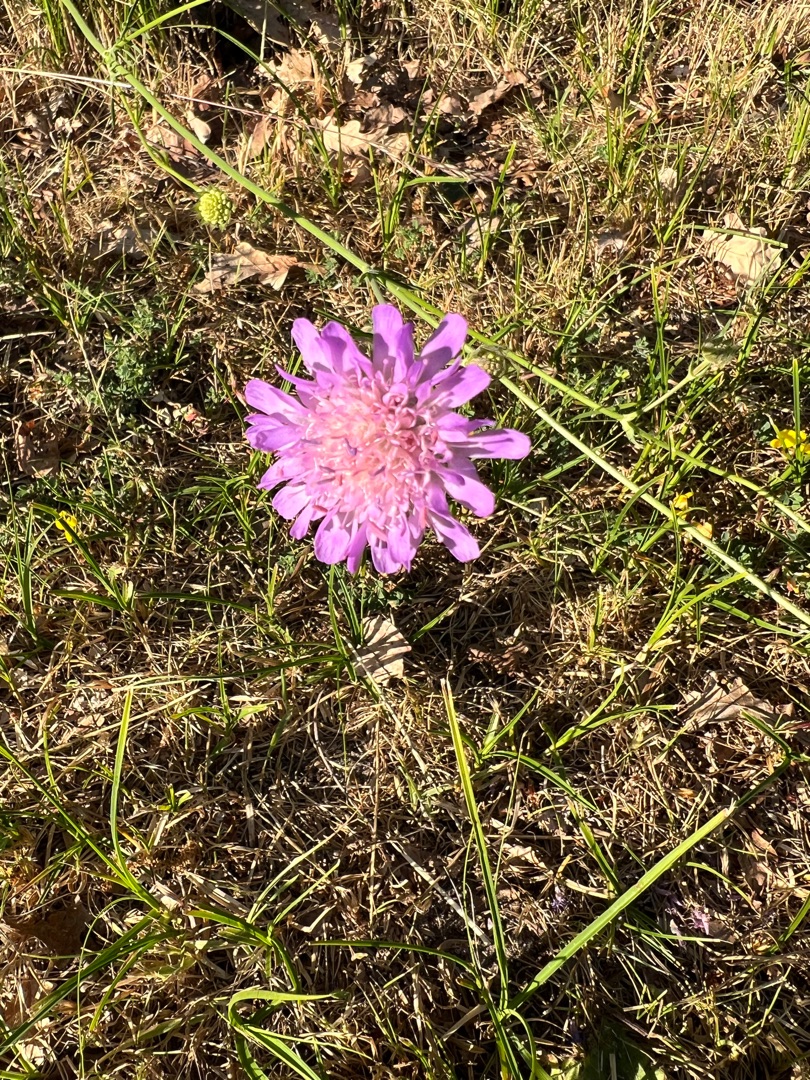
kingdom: Plantae
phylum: Tracheophyta
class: Magnoliopsida
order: Dipsacales
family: Caprifoliaceae
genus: Knautia
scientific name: Knautia arvensis
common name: Blåhat
